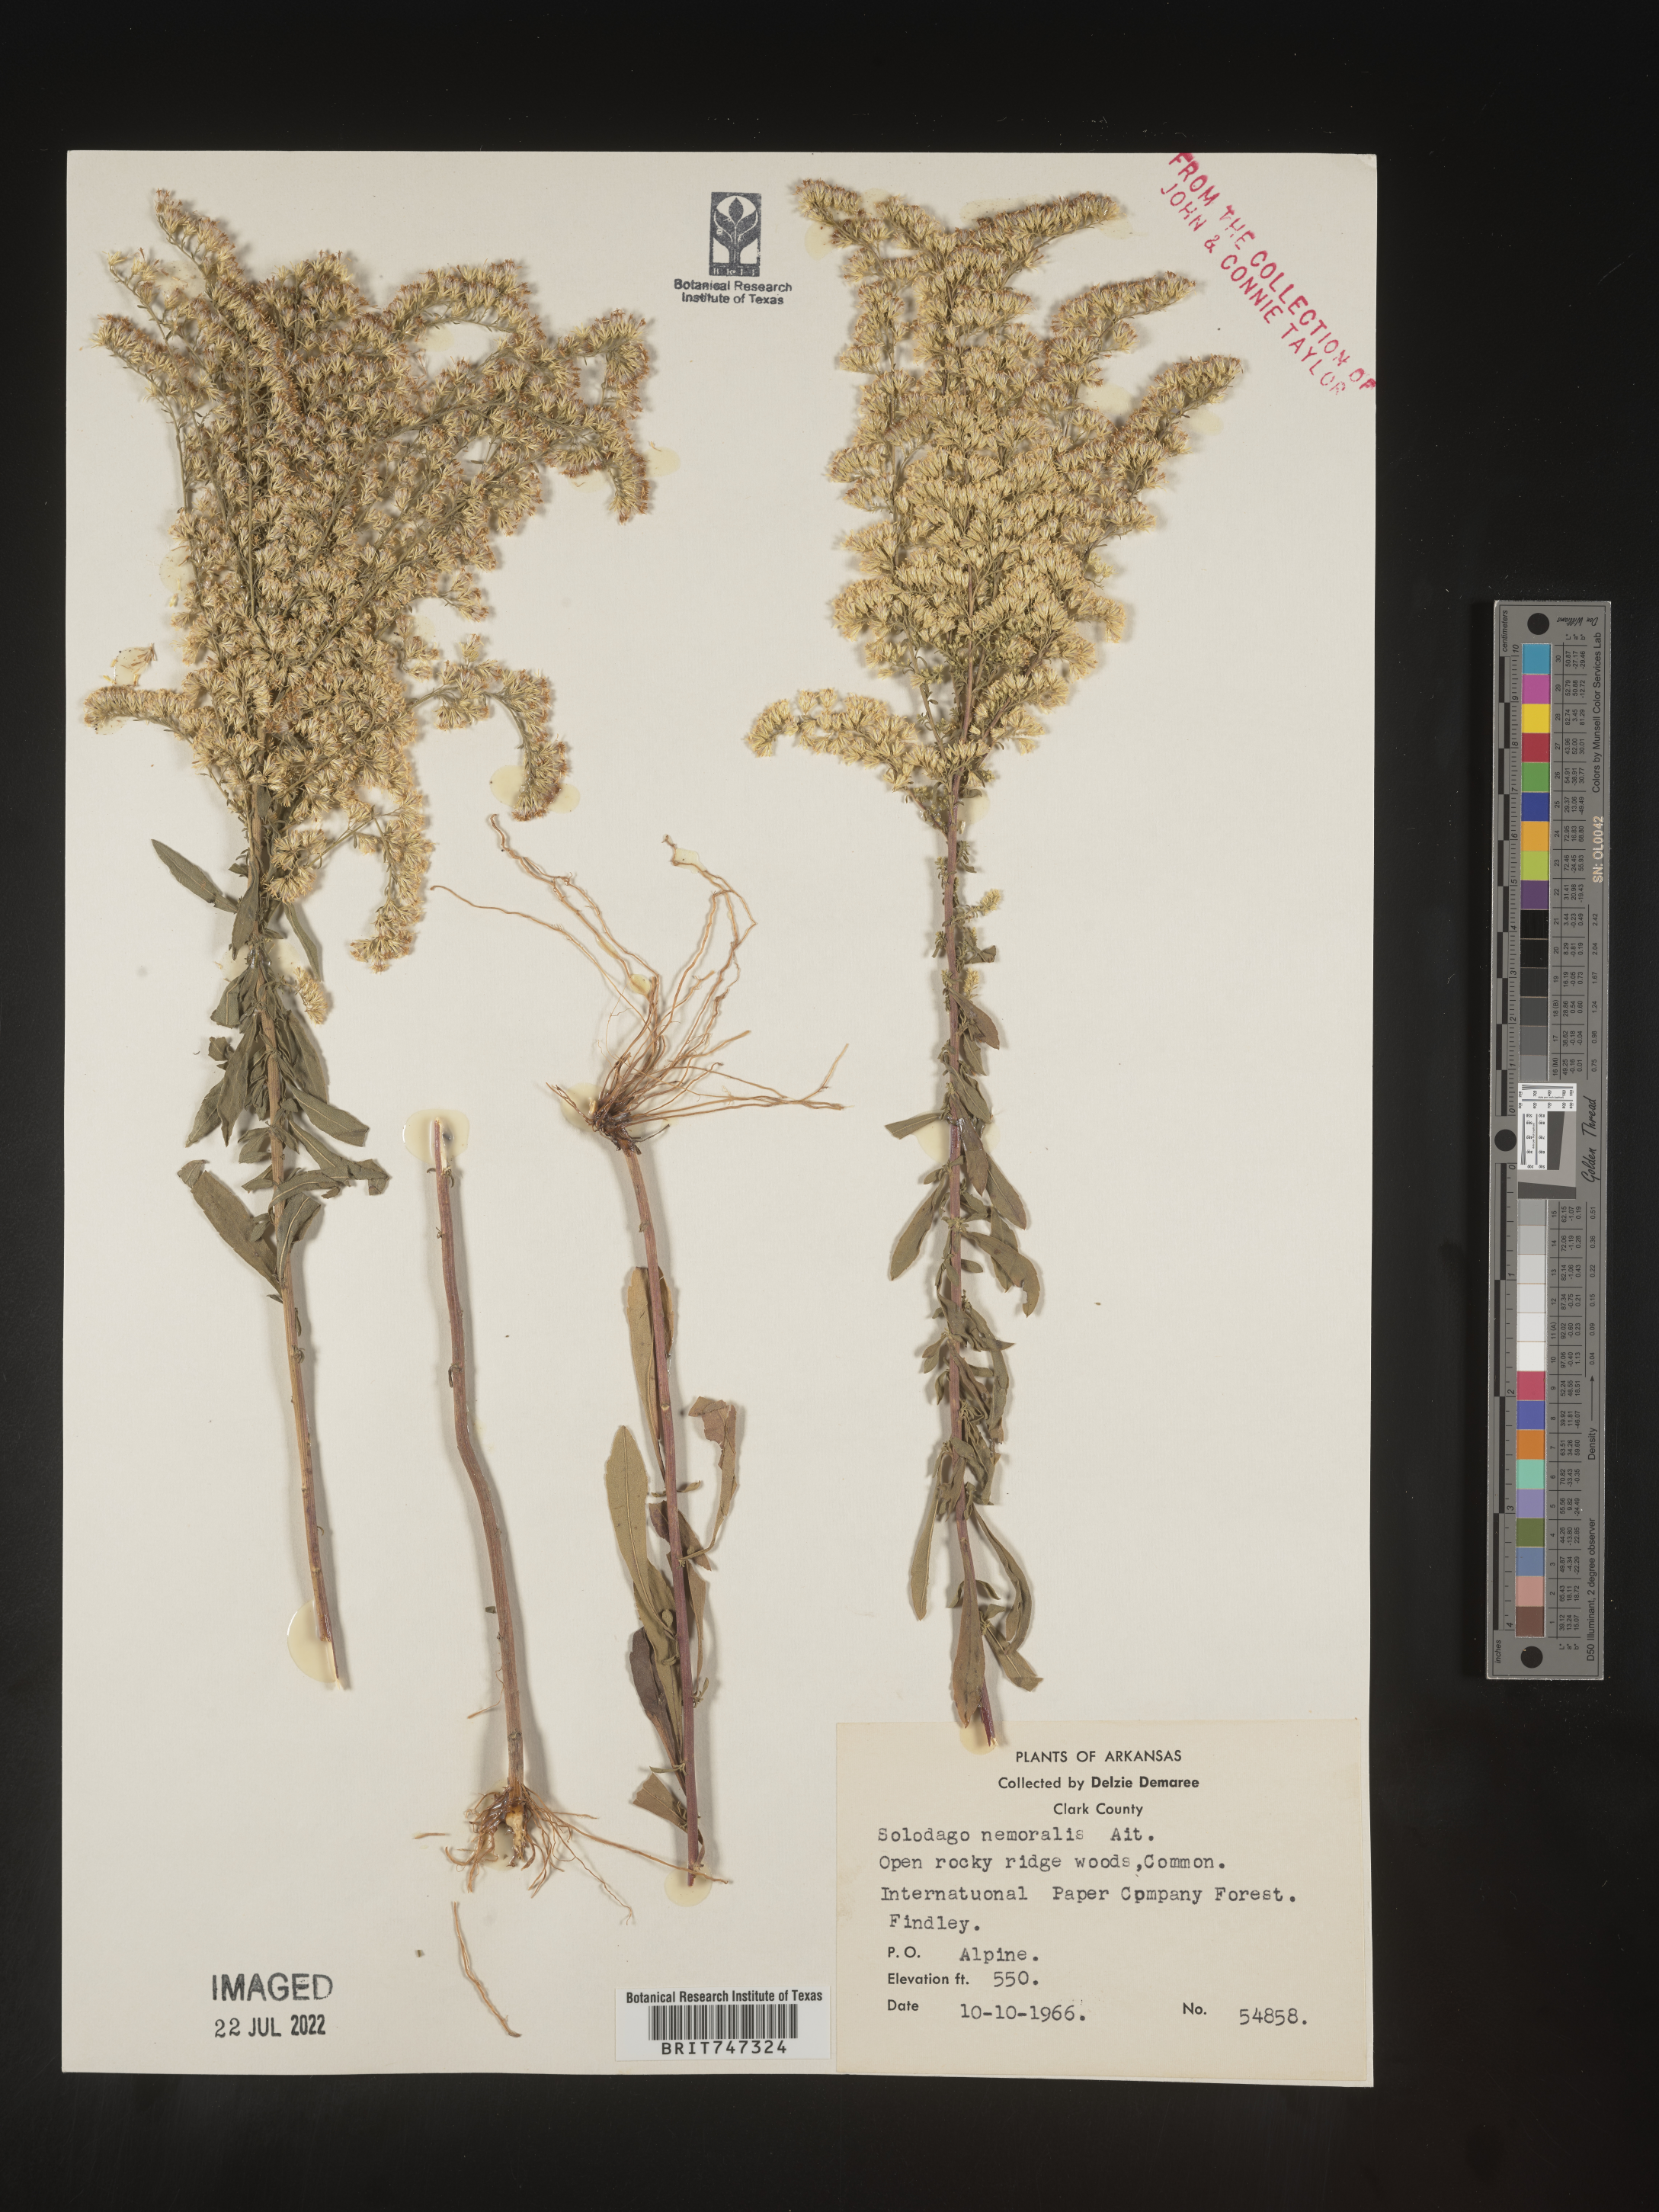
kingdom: Plantae
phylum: Tracheophyta
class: Magnoliopsida
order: Asterales
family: Asteraceae
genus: Solidago
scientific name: Solidago nemoralis
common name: Grey goldenrod
